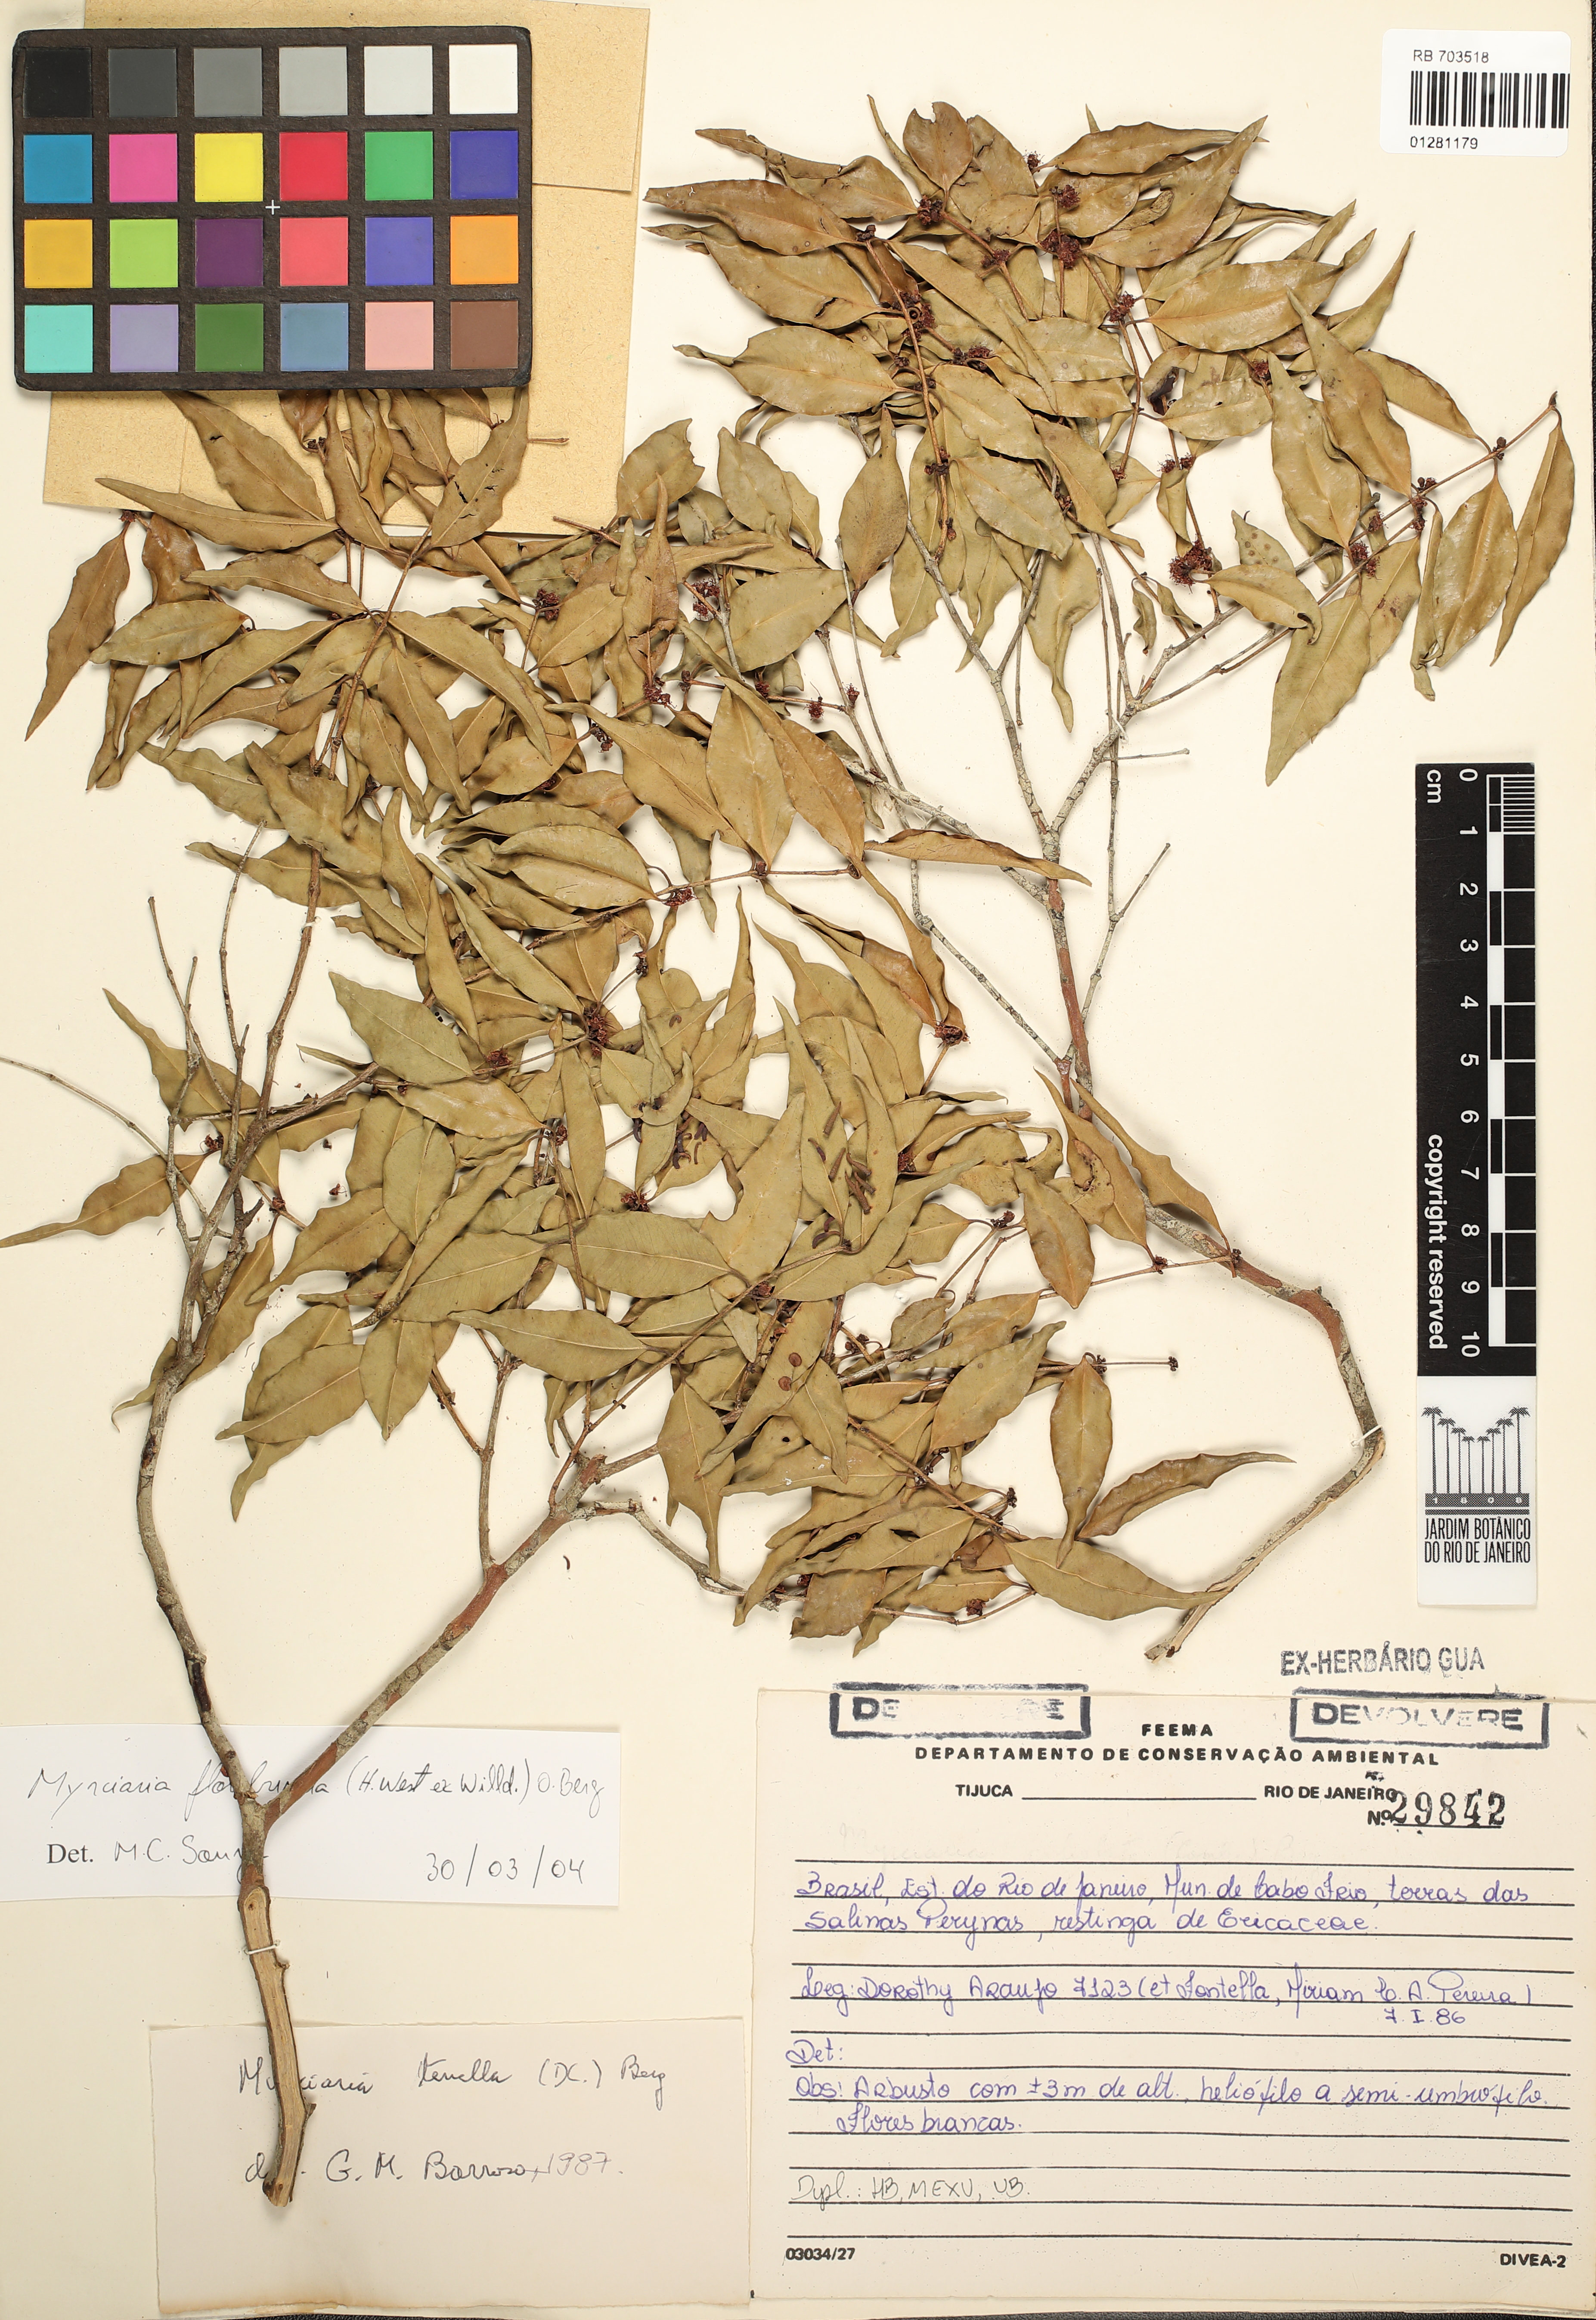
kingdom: Plantae
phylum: Tracheophyta
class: Magnoliopsida
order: Myrtales
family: Myrtaceae
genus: Myrciaria
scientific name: Myrciaria floribunda
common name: Guavaberry
